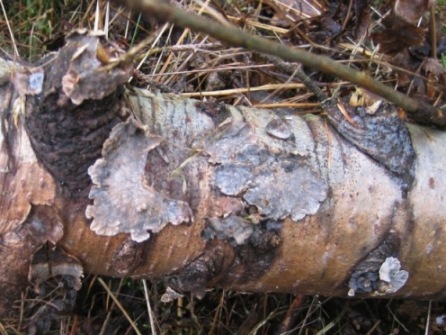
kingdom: Fungi
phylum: Basidiomycota
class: Agaricomycetes
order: Russulales
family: Stereaceae
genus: Stereum
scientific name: Stereum rugosum
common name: rynket lædersvamp
